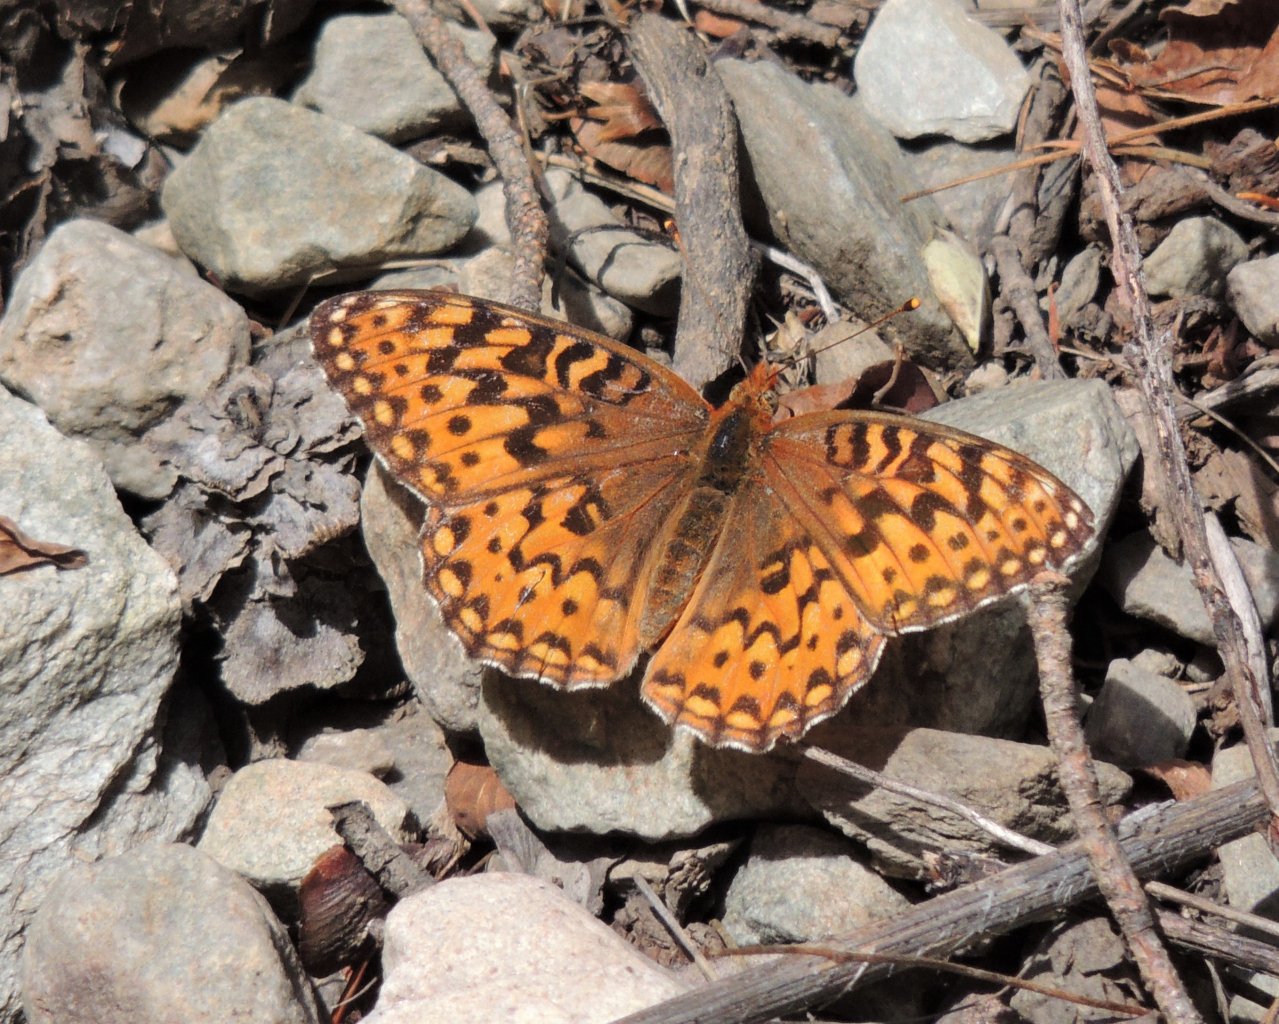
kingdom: Animalia
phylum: Arthropoda
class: Insecta
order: Lepidoptera
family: Nymphalidae
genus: Speyeria
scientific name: Speyeria zerene
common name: Zerene Fritillary
